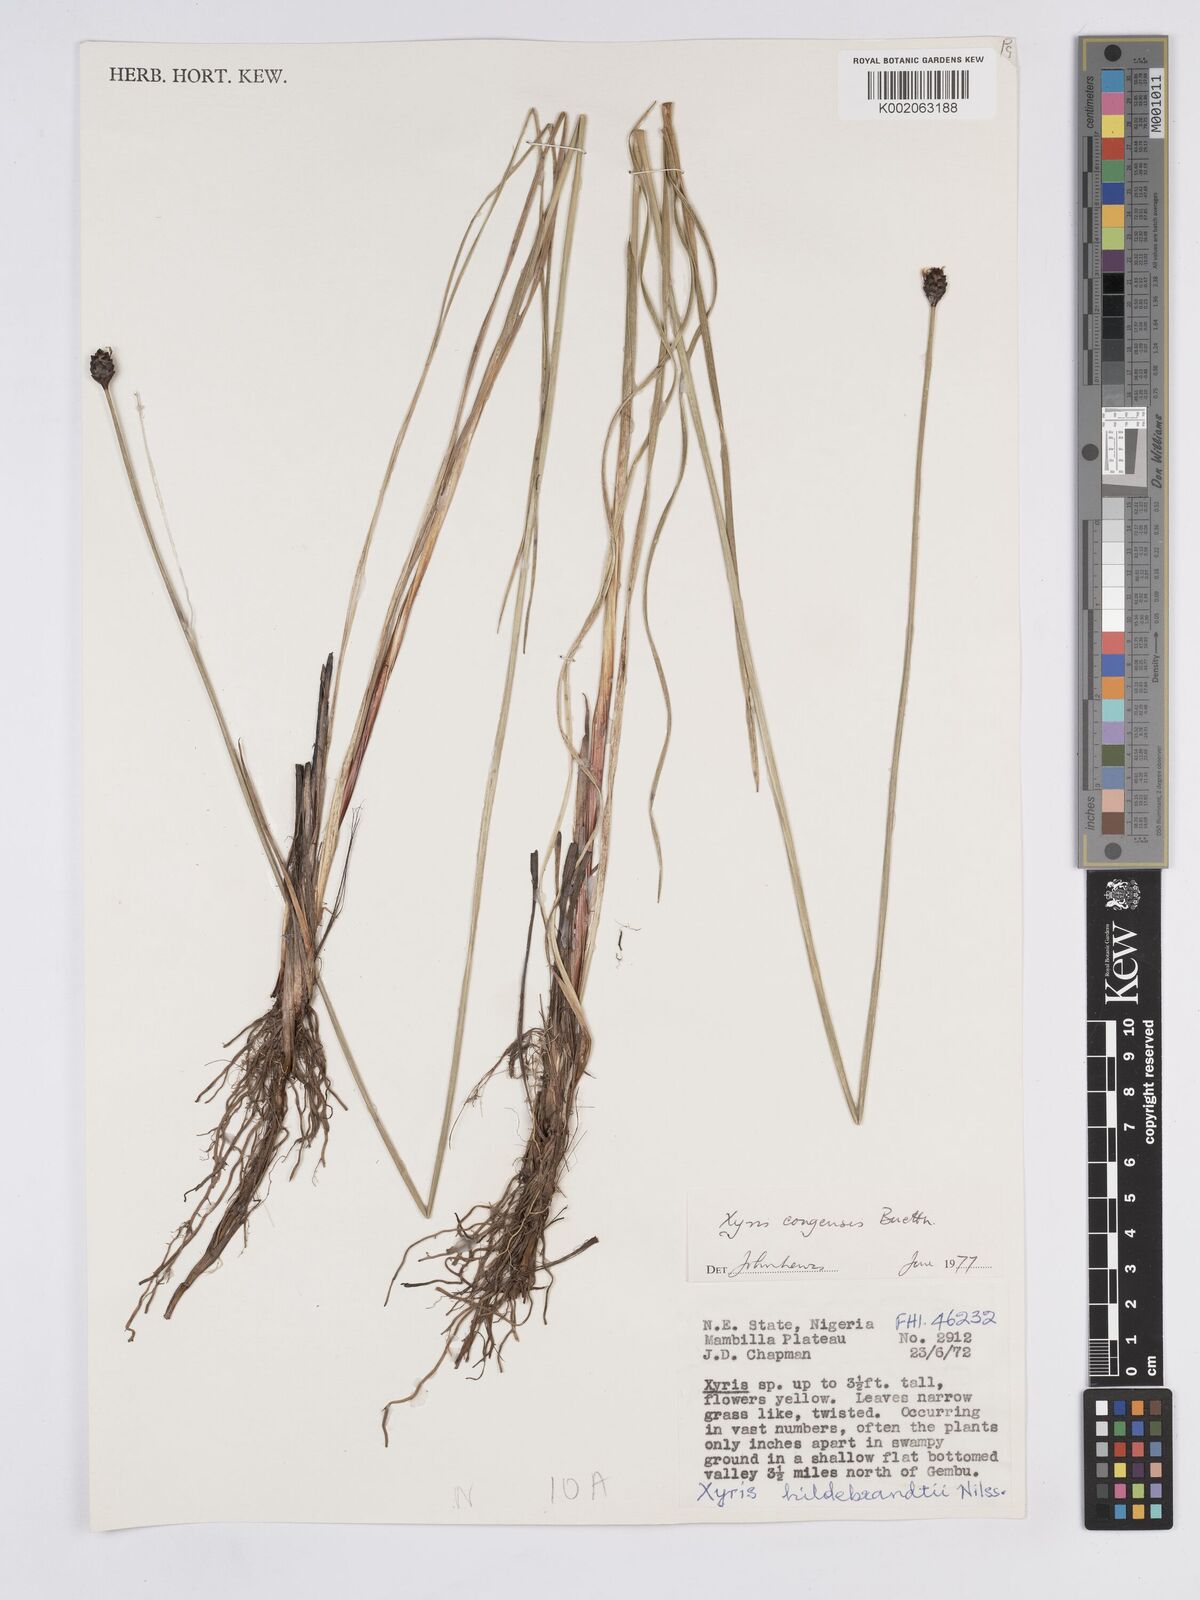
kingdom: Plantae
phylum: Tracheophyta
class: Liliopsida
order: Poales
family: Xyridaceae
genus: Xyris
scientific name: Xyris congensis
